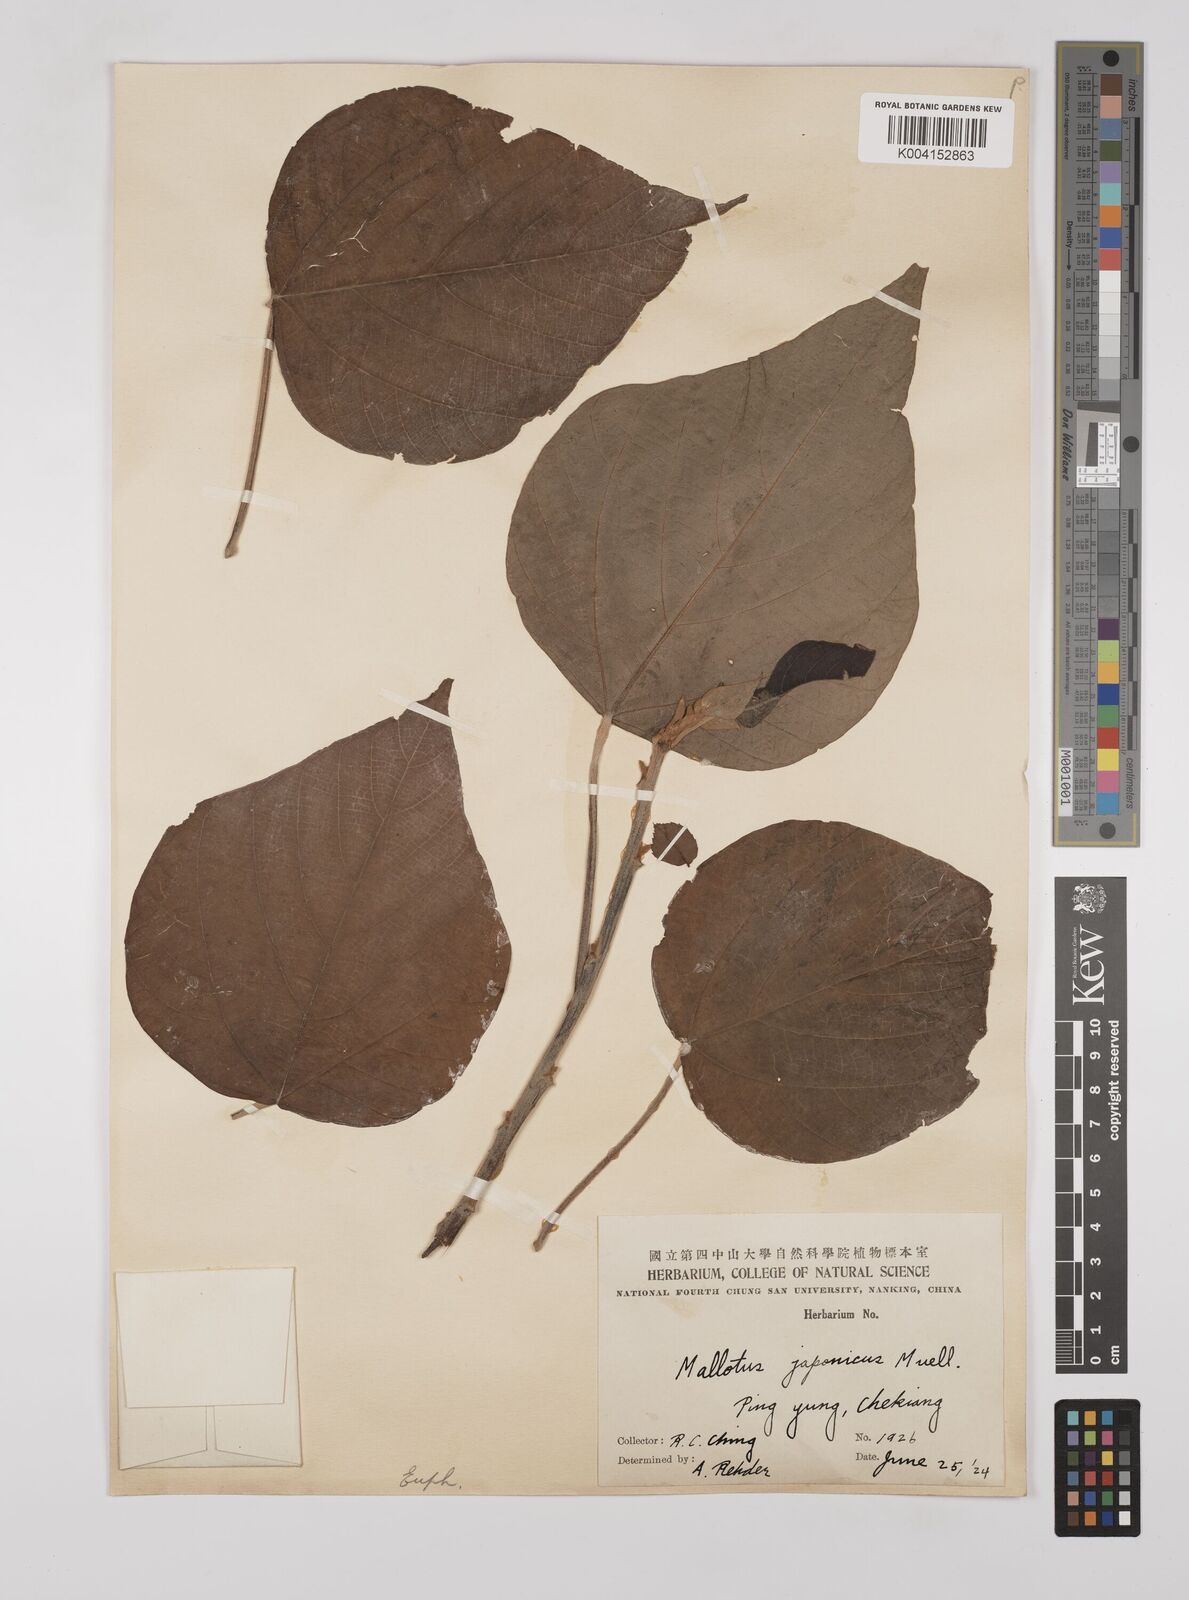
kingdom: Plantae
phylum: Tracheophyta
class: Magnoliopsida
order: Malpighiales
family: Euphorbiaceae
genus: Mallotus
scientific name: Mallotus lianus
